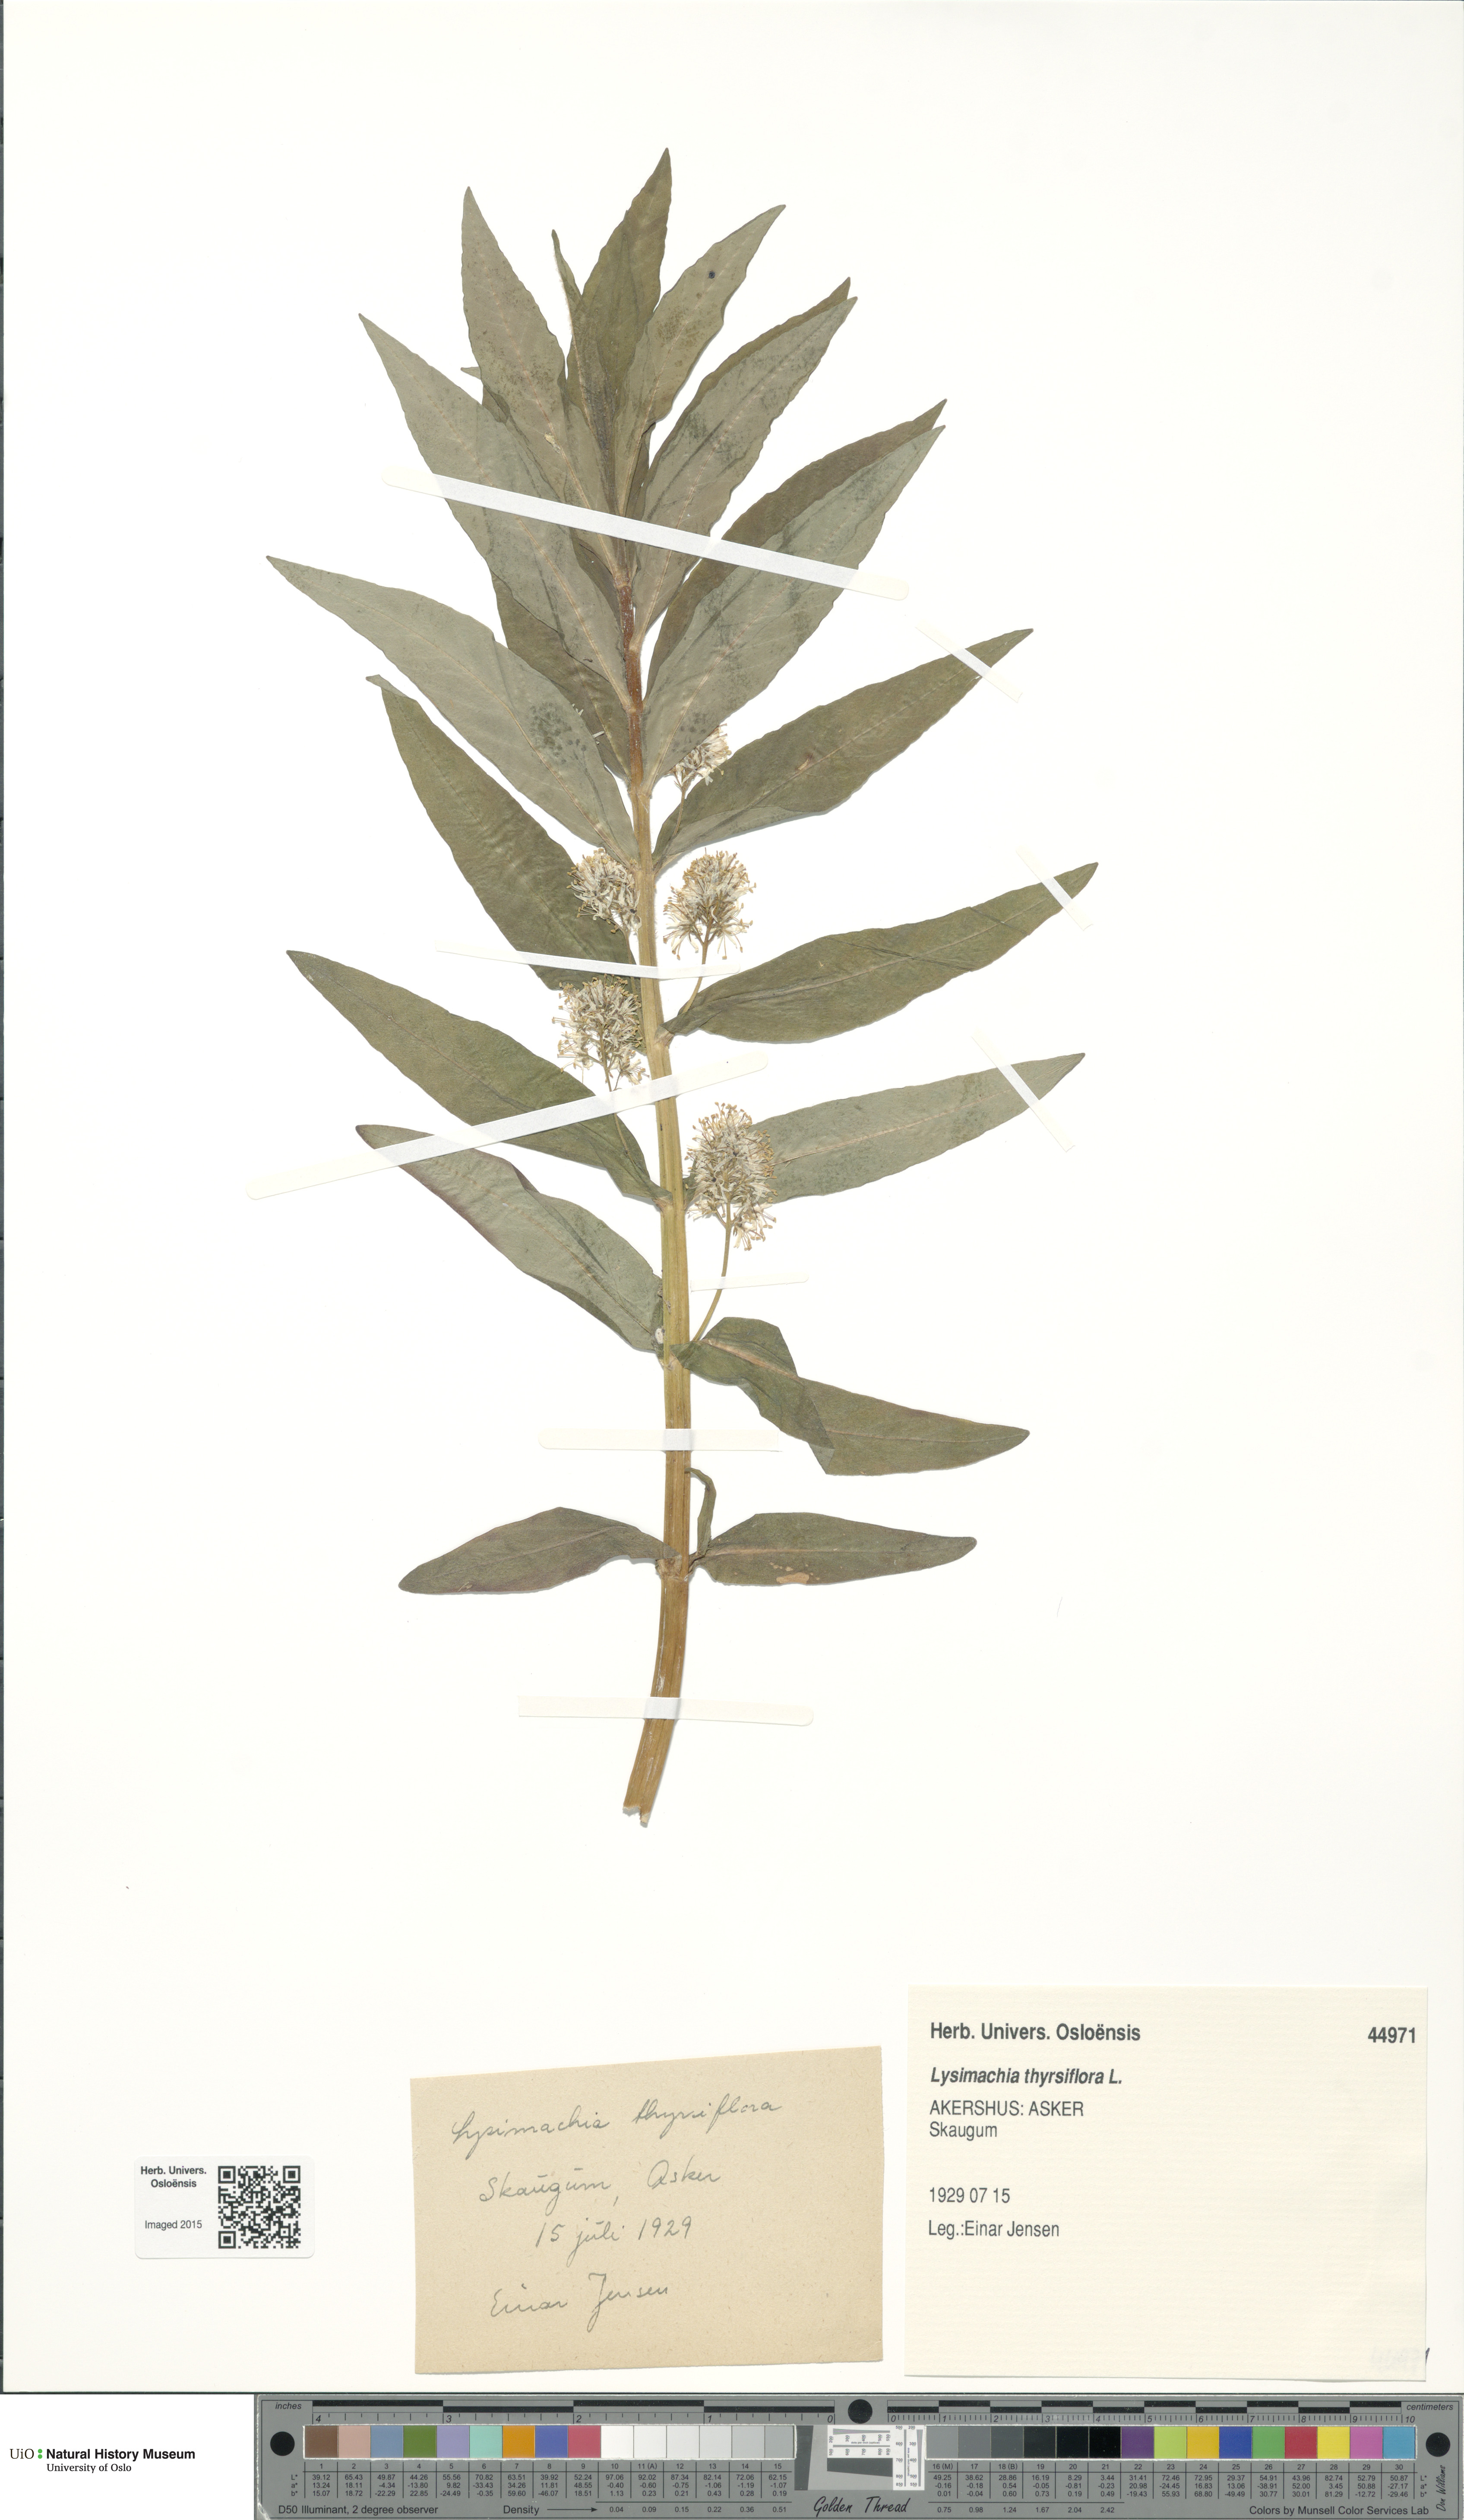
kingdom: Plantae
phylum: Tracheophyta
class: Magnoliopsida
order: Ericales
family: Primulaceae
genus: Lysimachia
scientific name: Lysimachia thyrsiflora
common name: Tufted loosestrife
